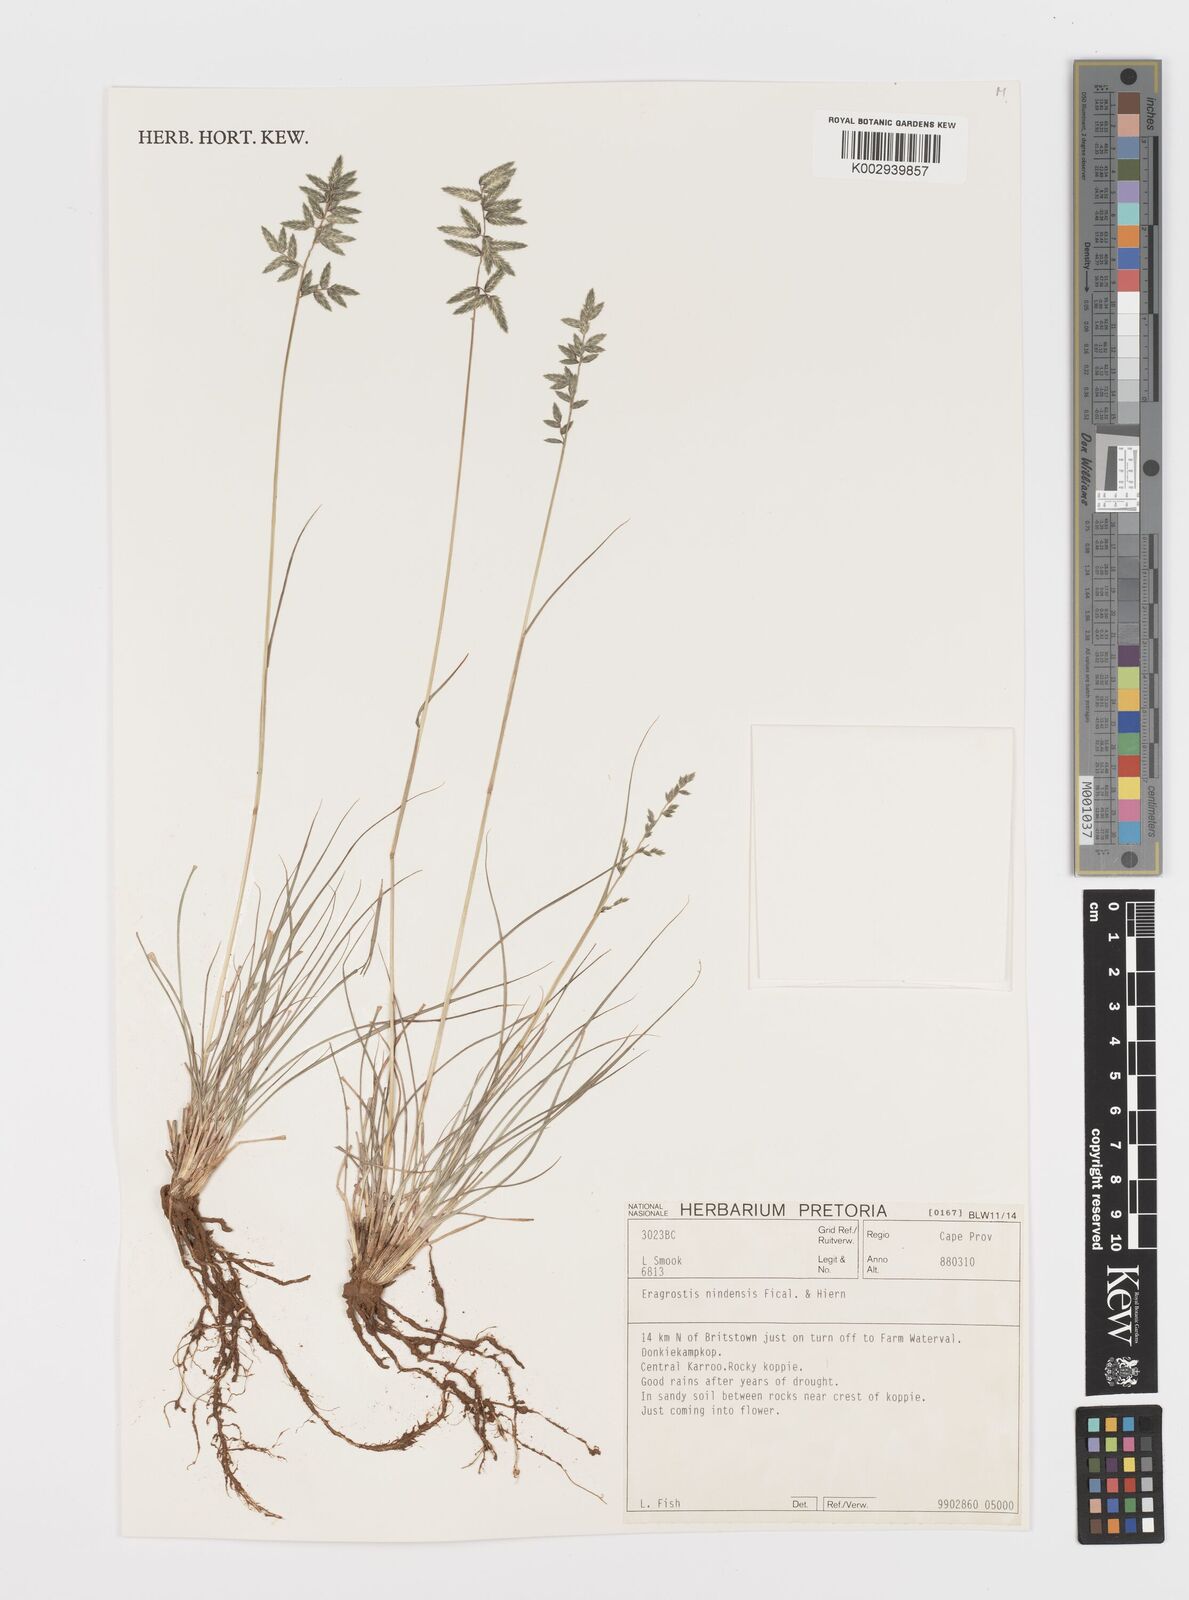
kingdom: Plantae
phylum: Tracheophyta
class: Liliopsida
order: Poales
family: Poaceae
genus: Eragrostis
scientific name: Eragrostis nindensis
